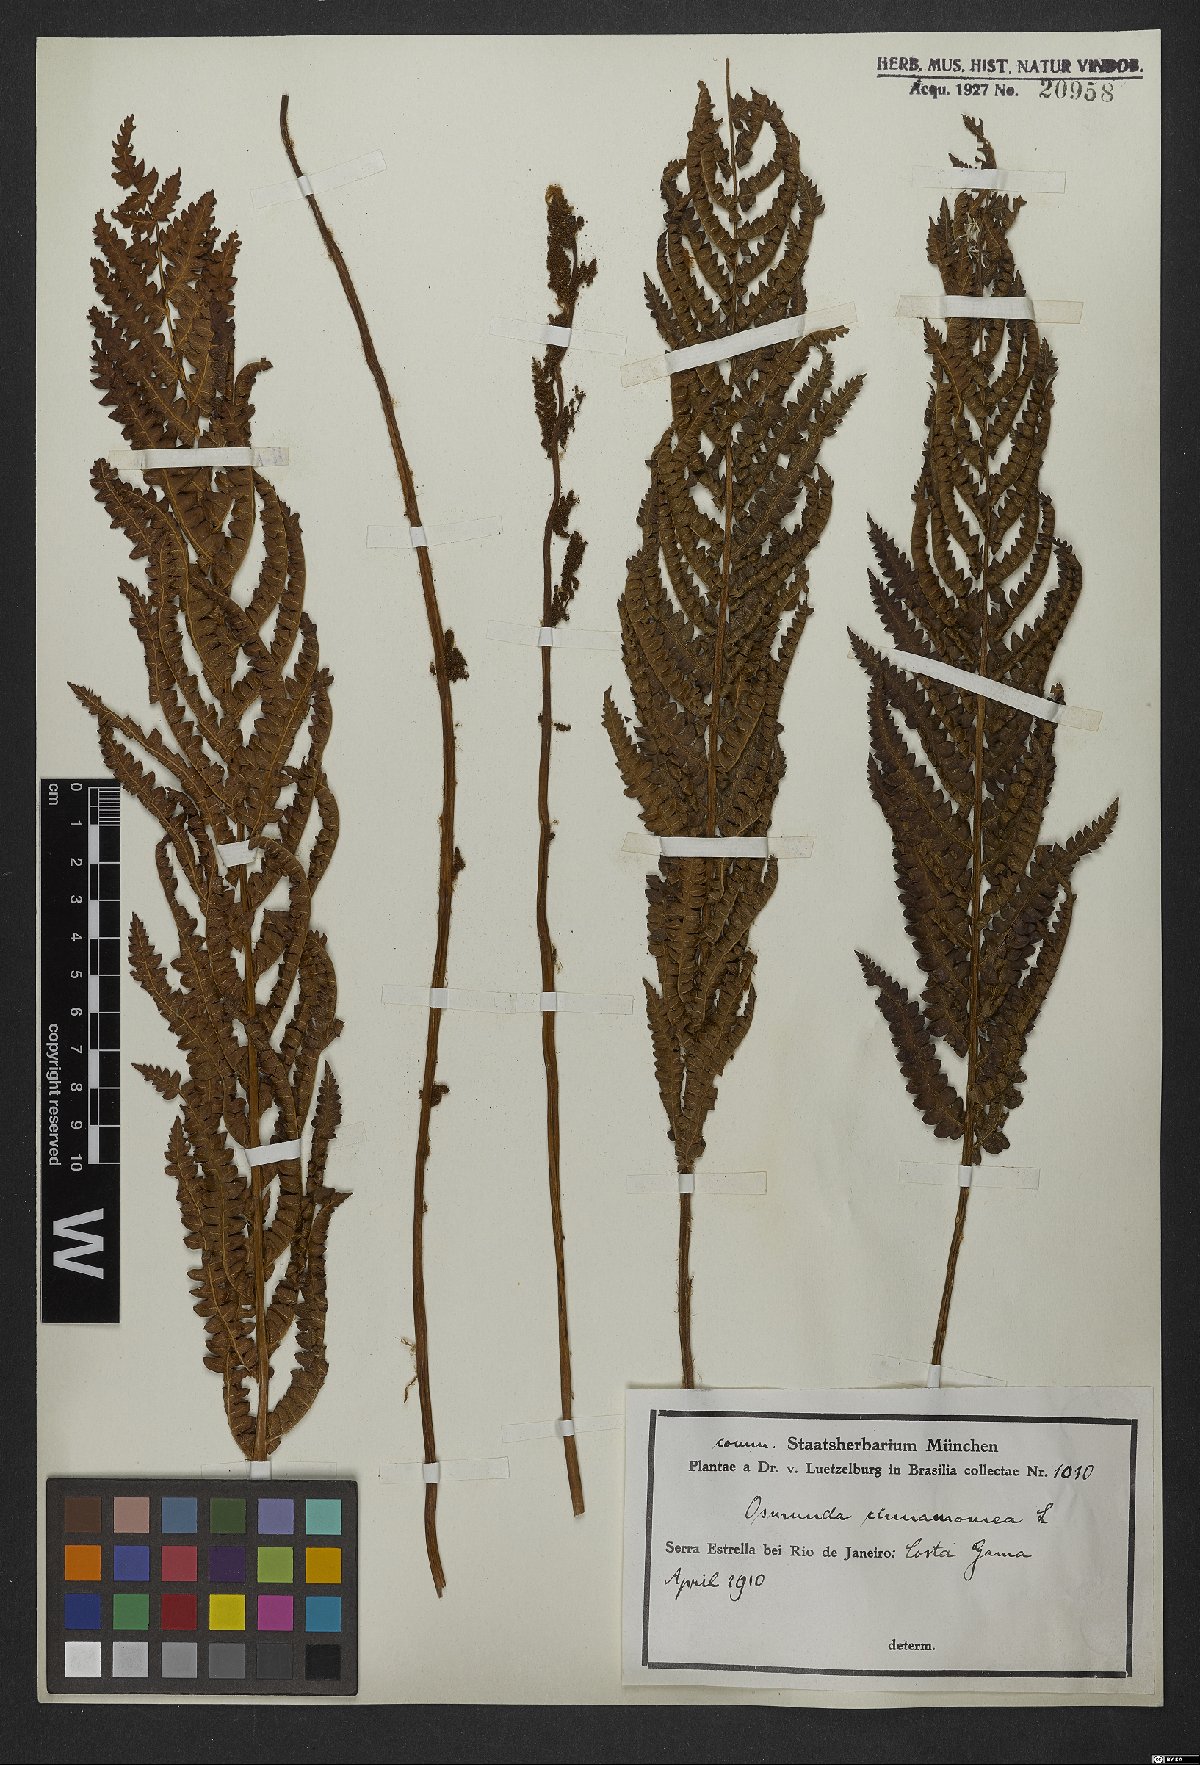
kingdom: Plantae
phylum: Tracheophyta
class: Polypodiopsida
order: Osmundales
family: Osmundaceae
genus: Osmundastrum
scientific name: Osmundastrum cinnamomeum
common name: Cinnamon fern
